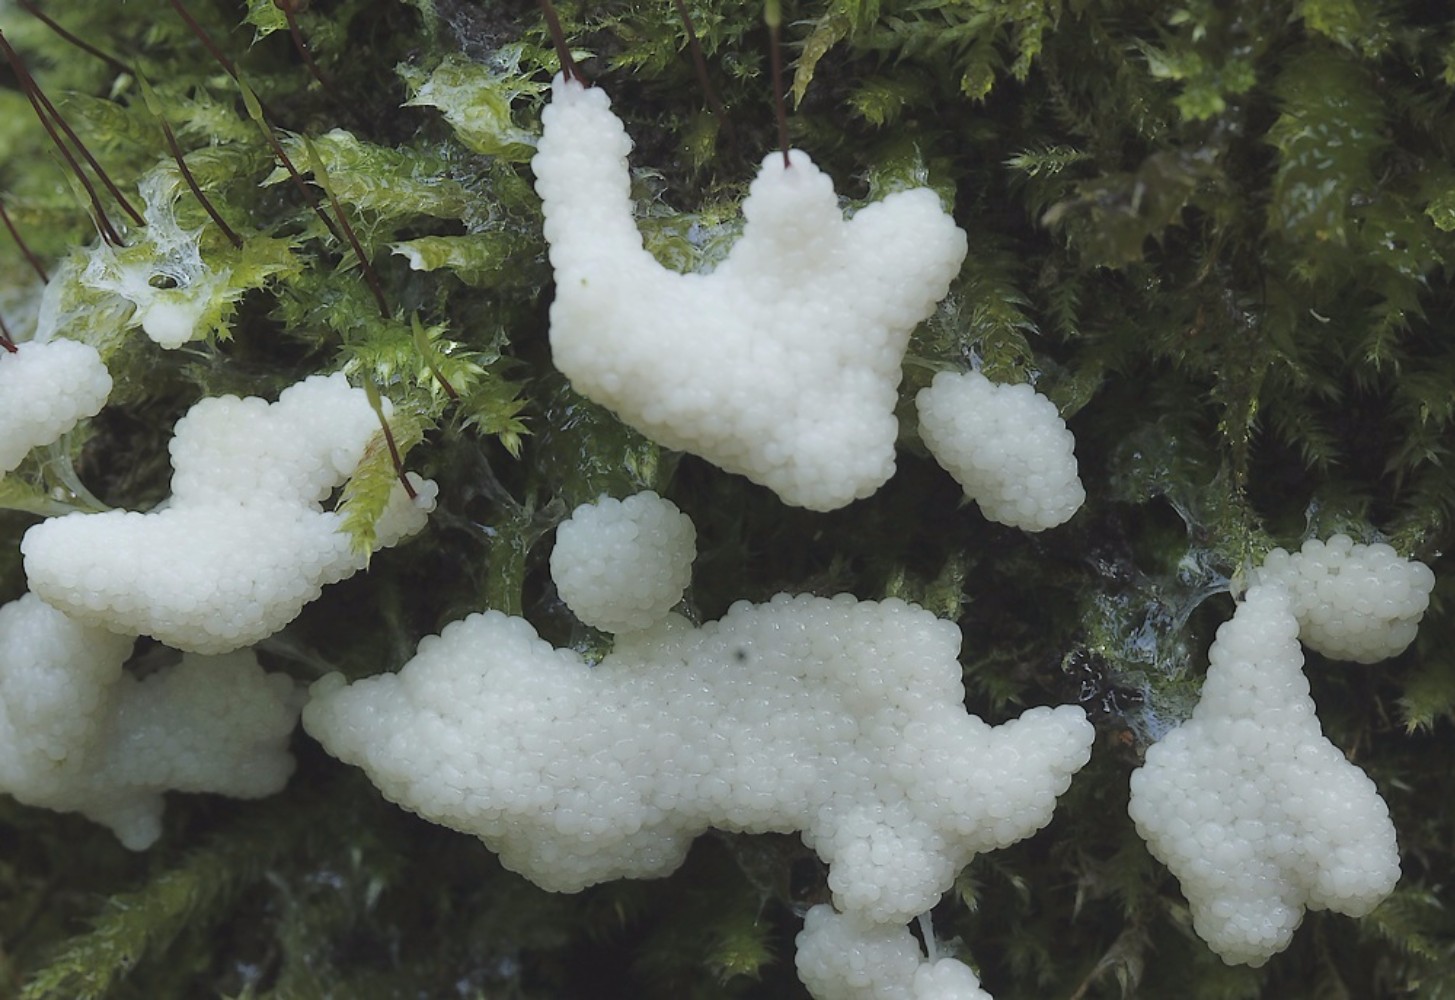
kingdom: Protozoa
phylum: Mycetozoa
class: Myxomycetes
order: Stemonitidales
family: Stemonitidaceae
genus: Stemonitis
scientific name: Stemonitis
